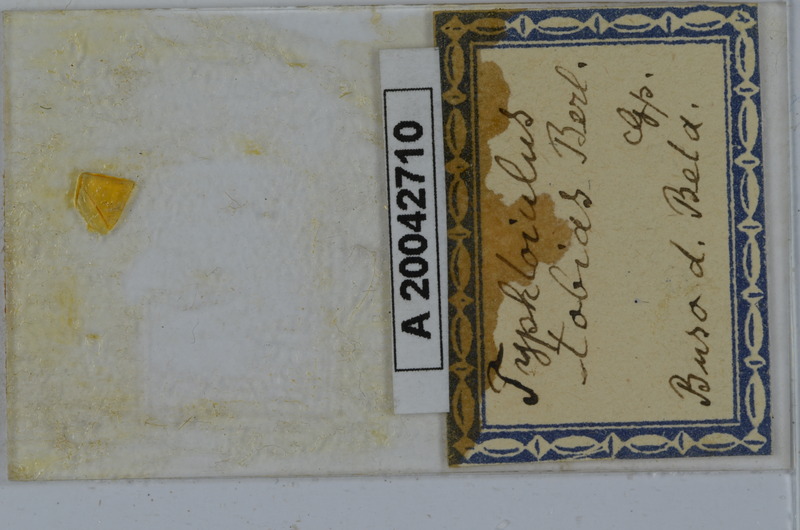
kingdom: Animalia
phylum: Arthropoda
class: Diplopoda
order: Julida
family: Julidae
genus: Stygiiulus
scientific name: Stygiiulus tobias
